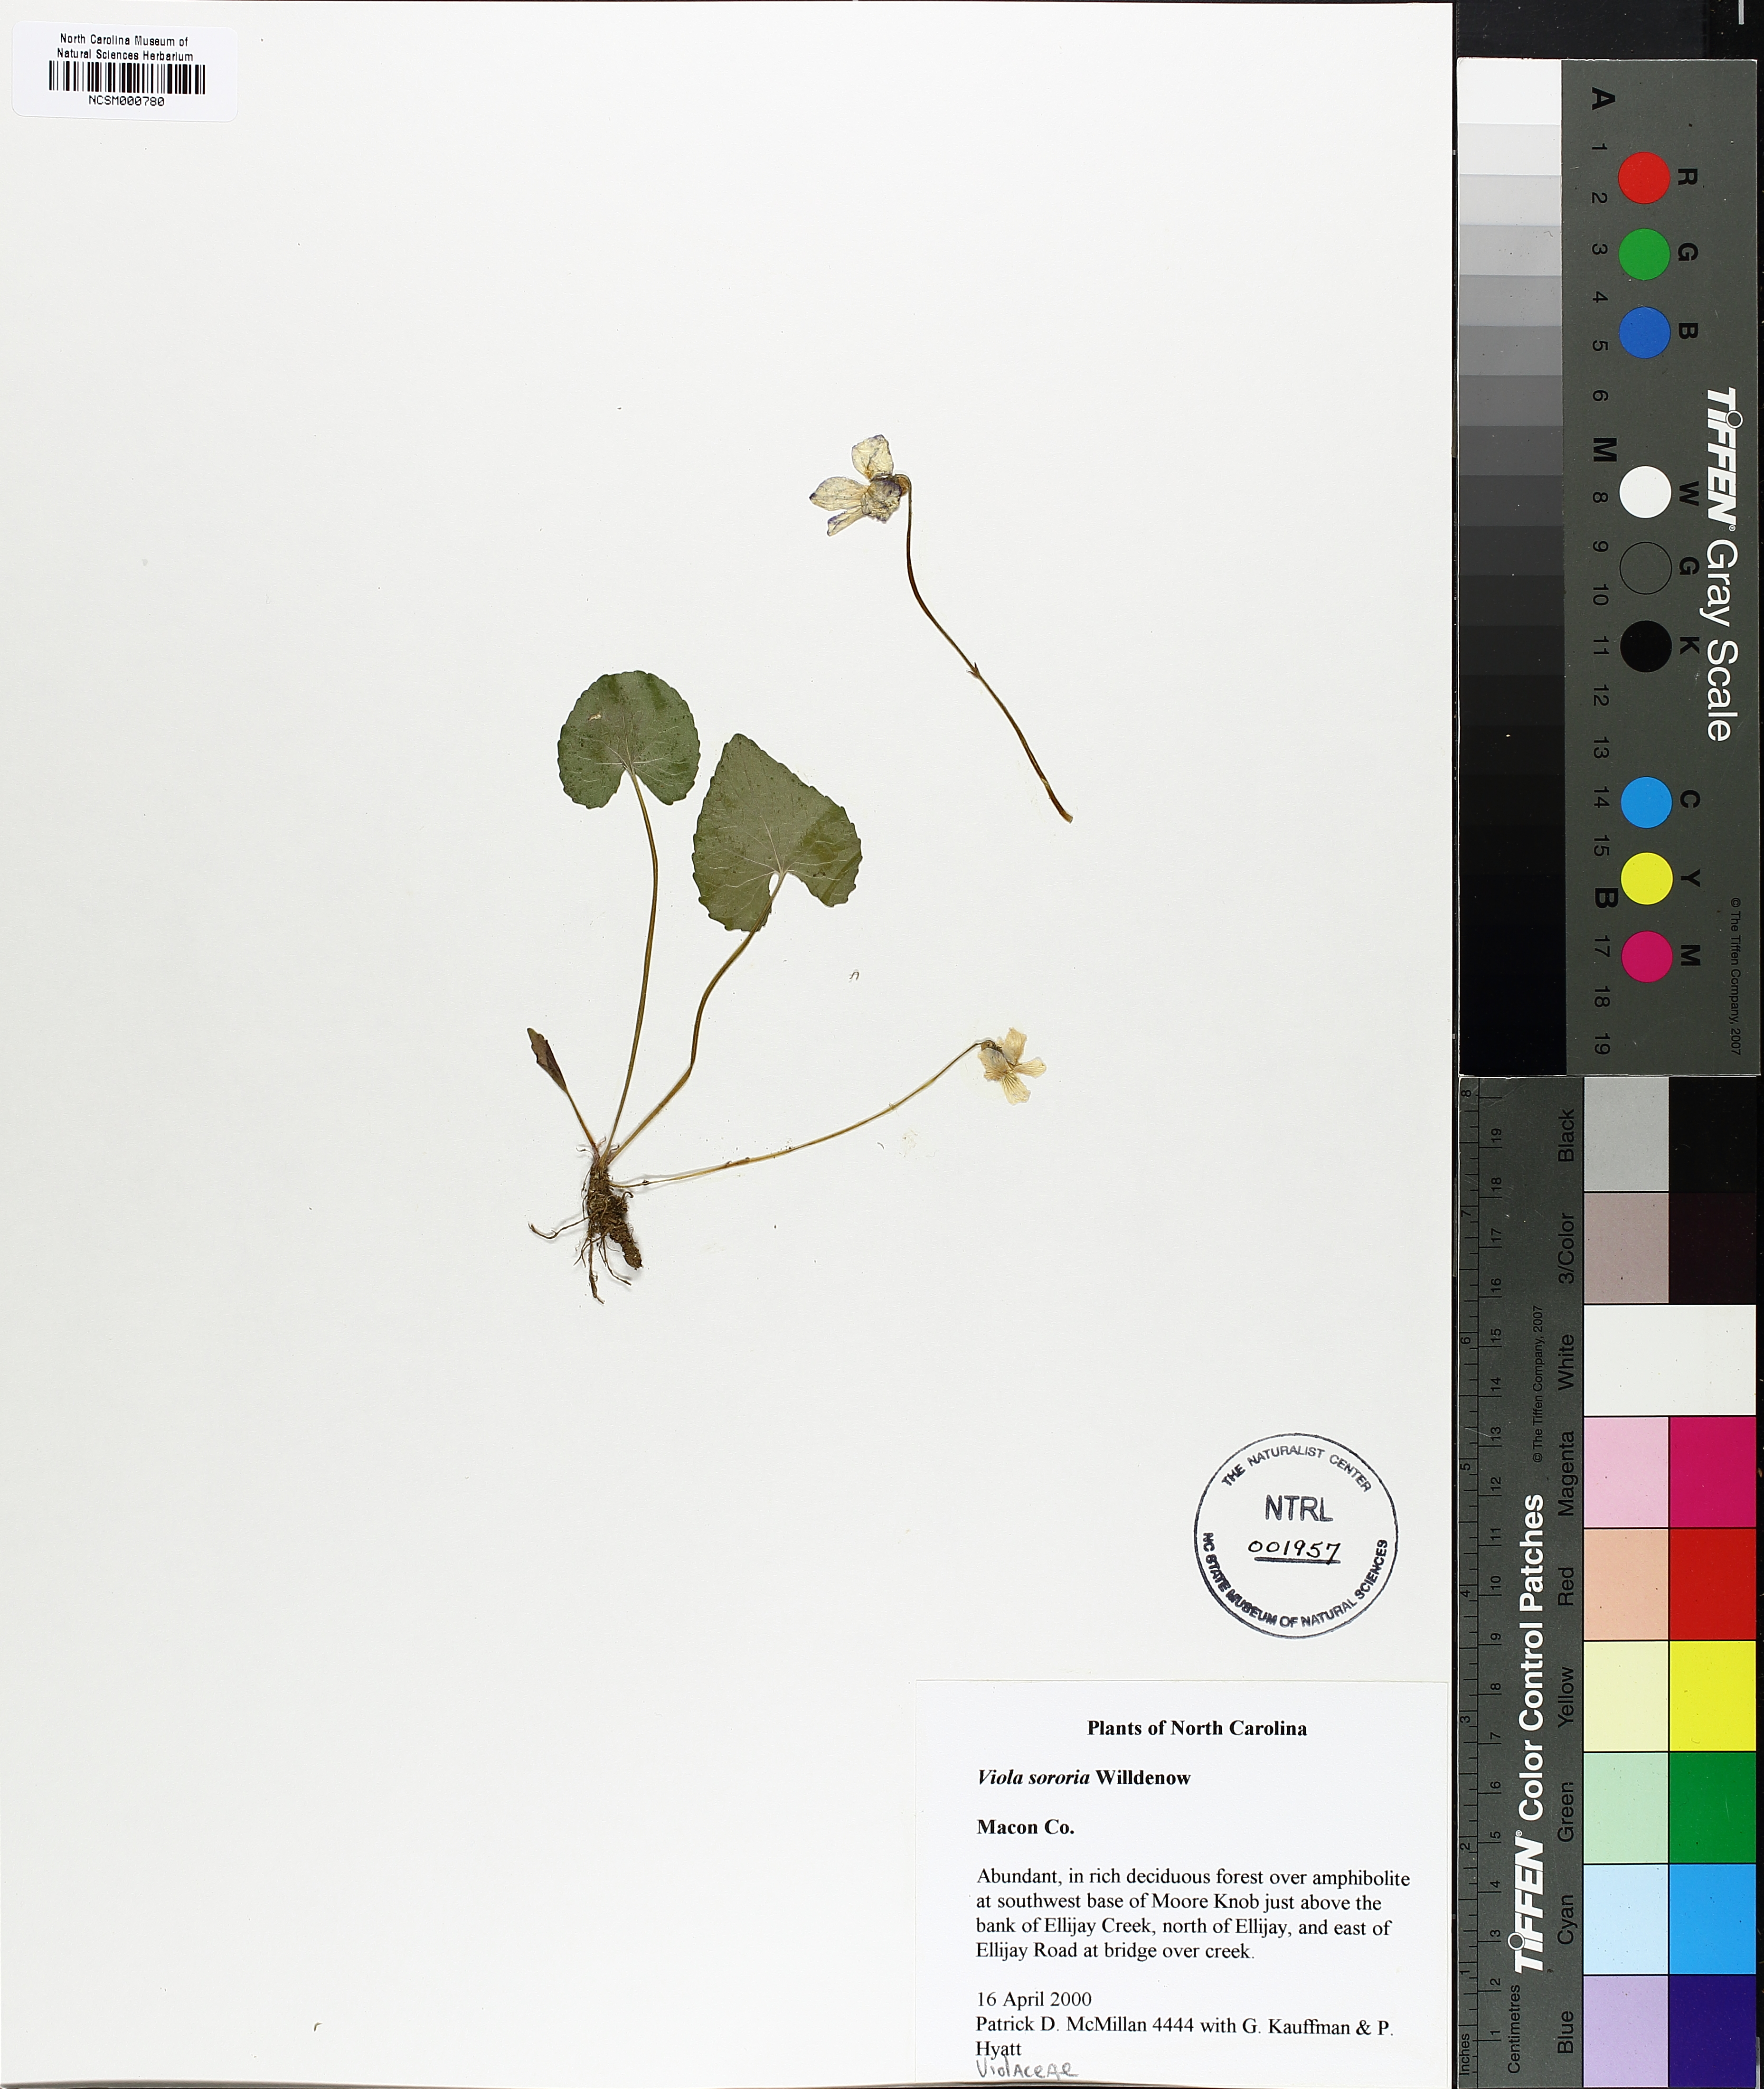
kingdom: Plantae
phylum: Tracheophyta
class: Magnoliopsida
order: Malpighiales
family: Violaceae
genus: Viola
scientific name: Viola sororia
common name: Dooryard violet
